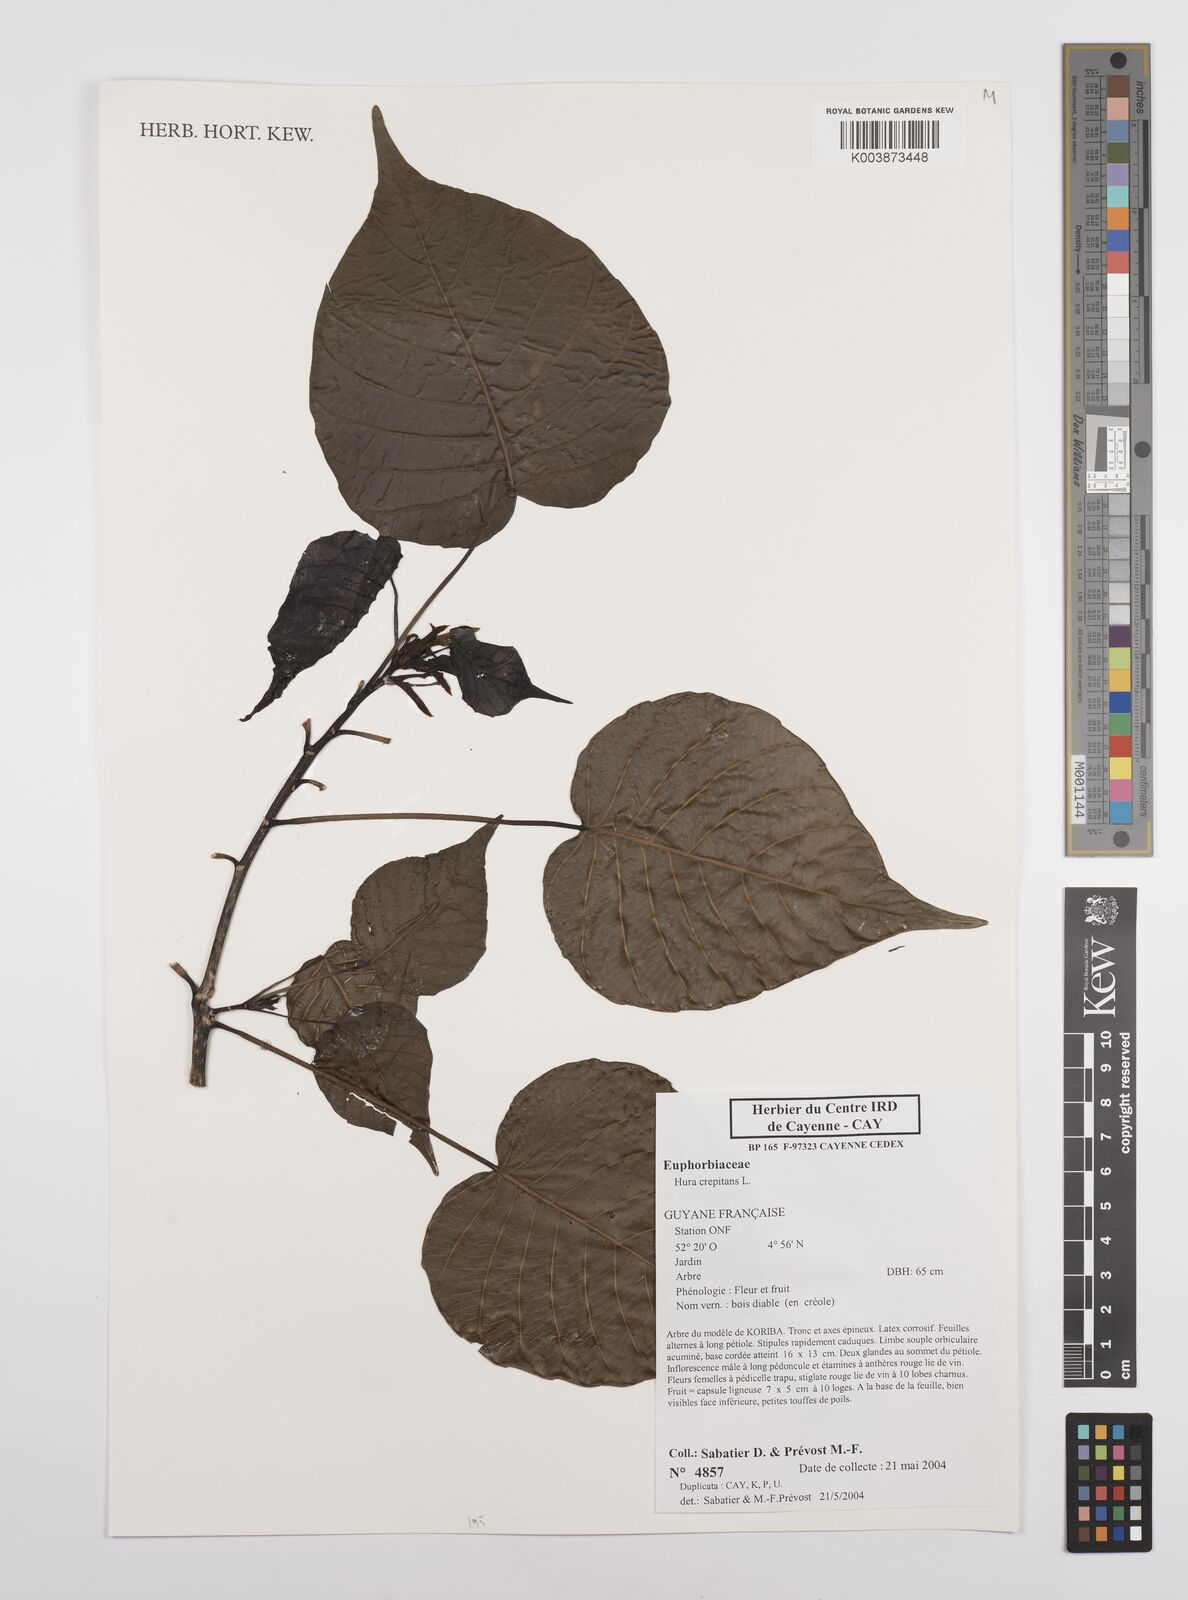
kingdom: Plantae
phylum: Tracheophyta
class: Magnoliopsida
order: Malpighiales
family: Euphorbiaceae
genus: Hura
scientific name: Hura crepitans
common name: Sandboxtree
